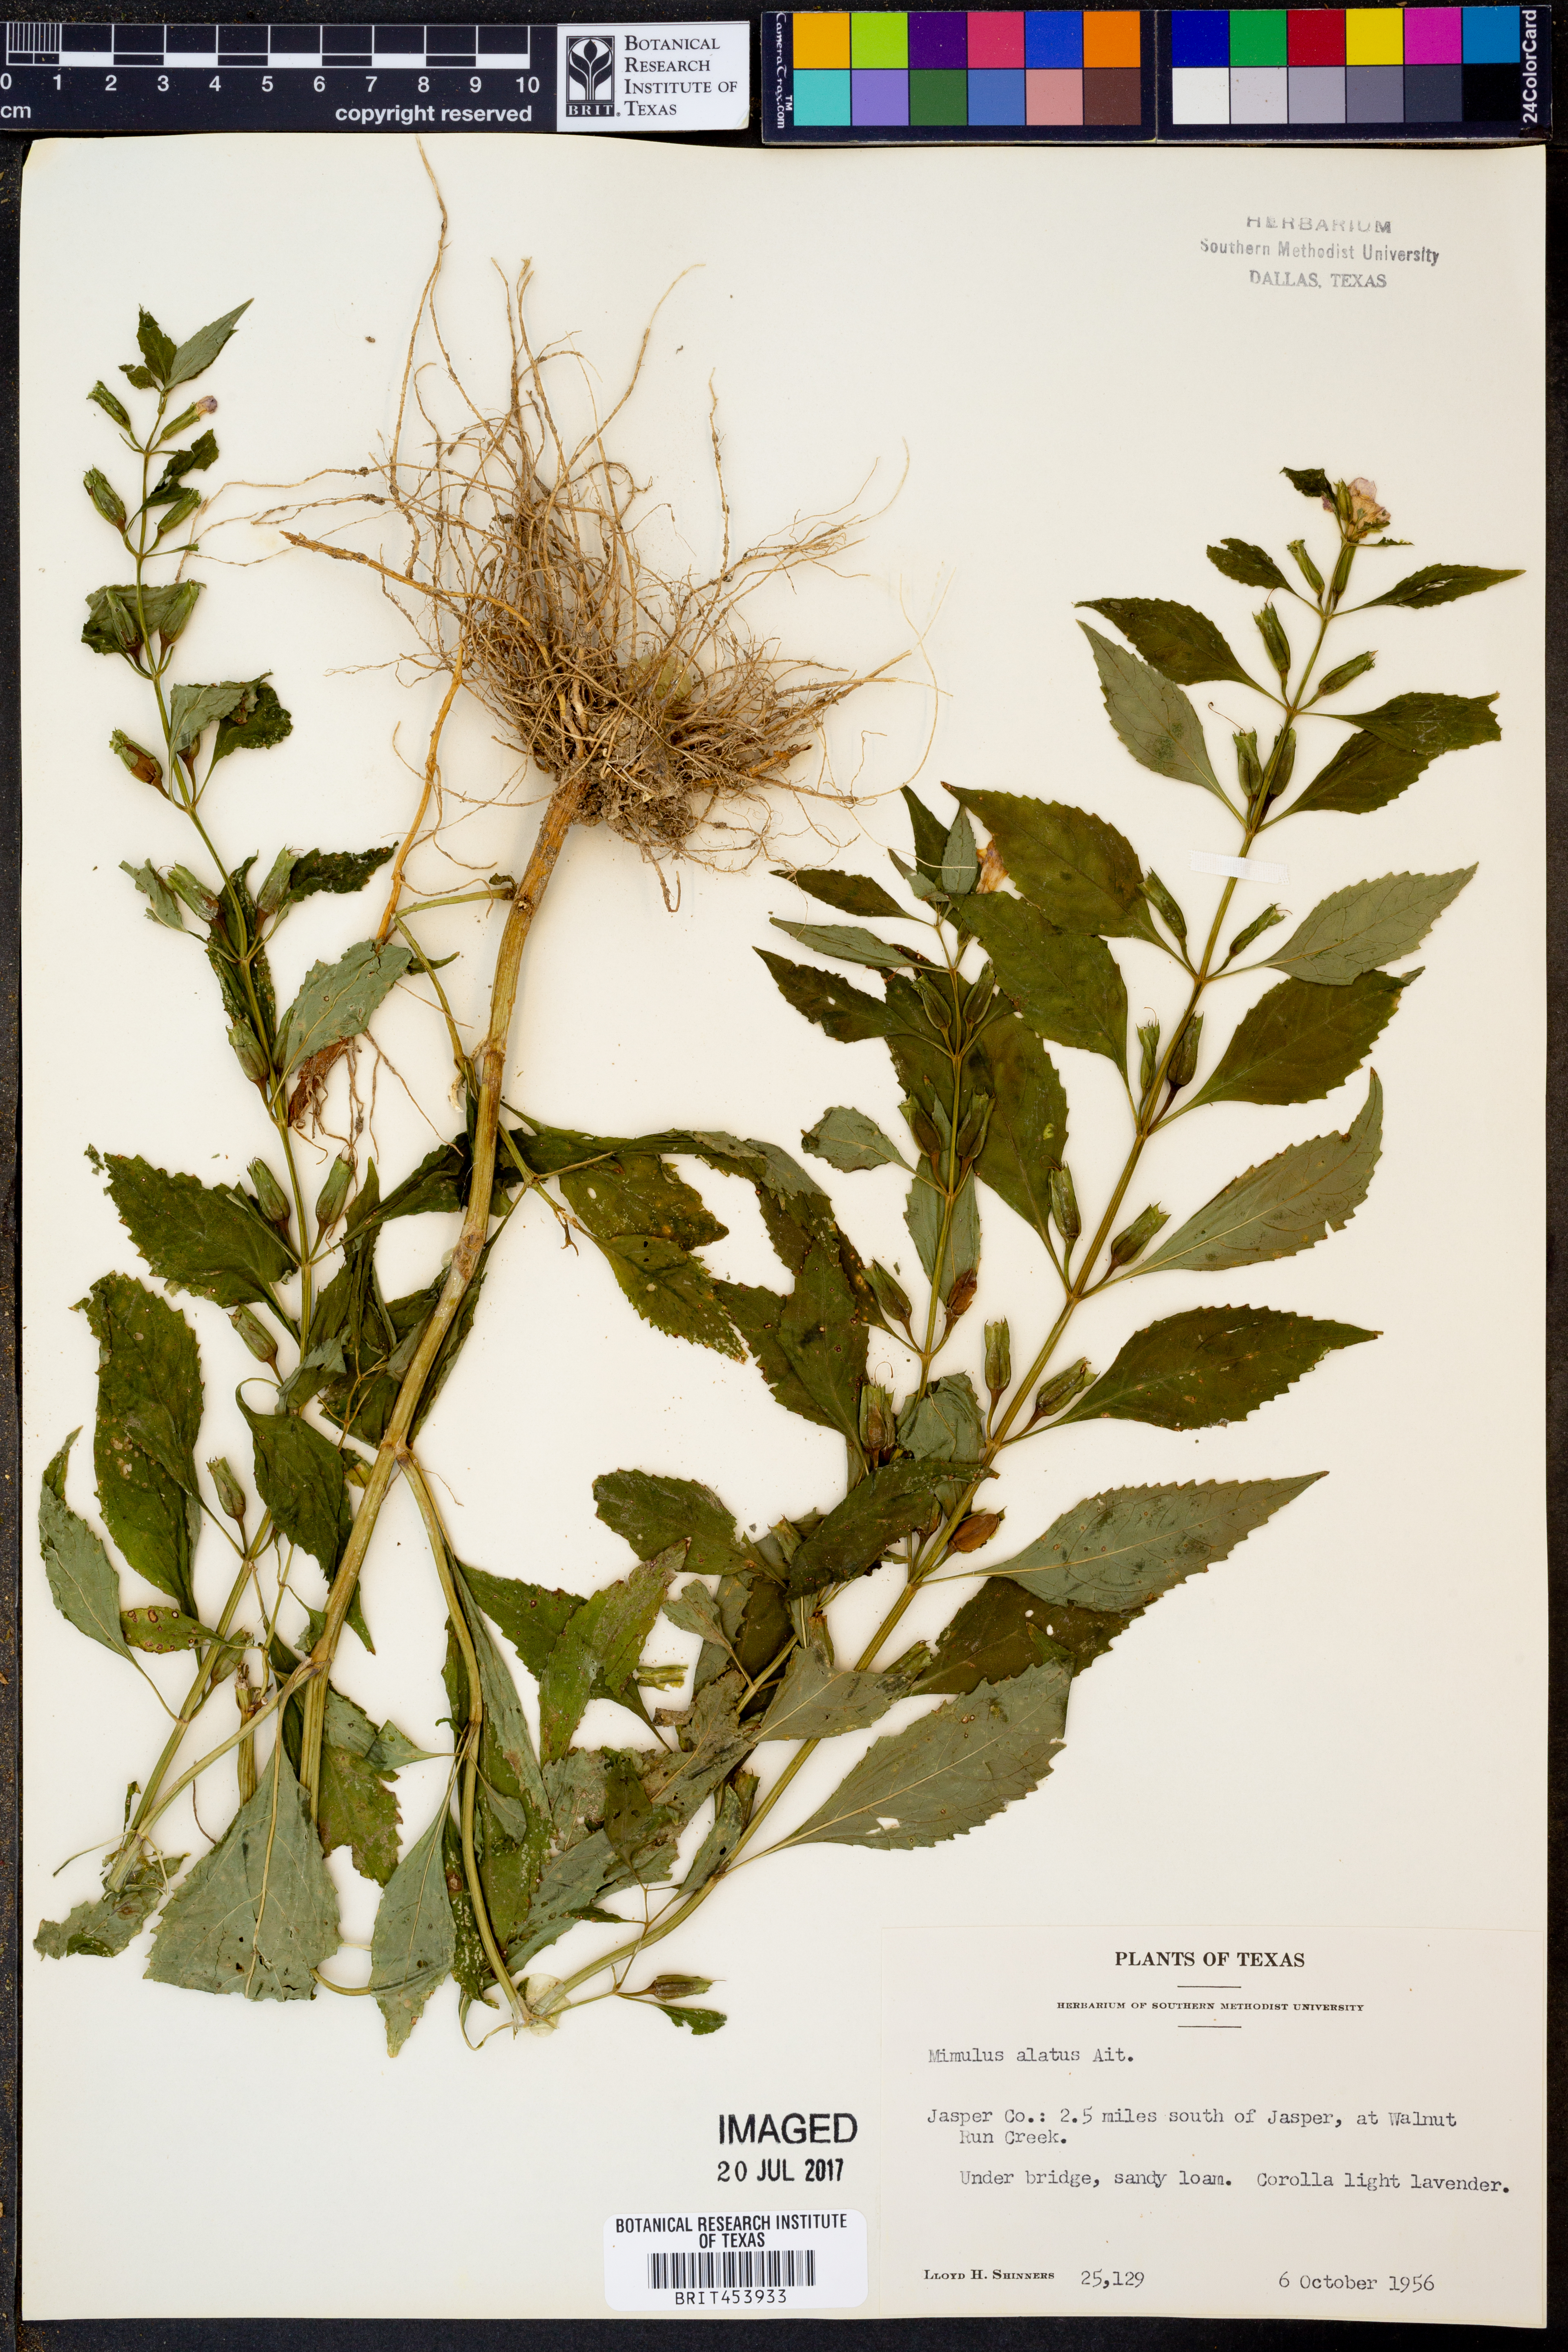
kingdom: Plantae
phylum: Tracheophyta
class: Magnoliopsida
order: Lamiales
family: Phrymaceae
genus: Mimulus
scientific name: Mimulus alatus
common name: Sharp-wing monkey-flower
